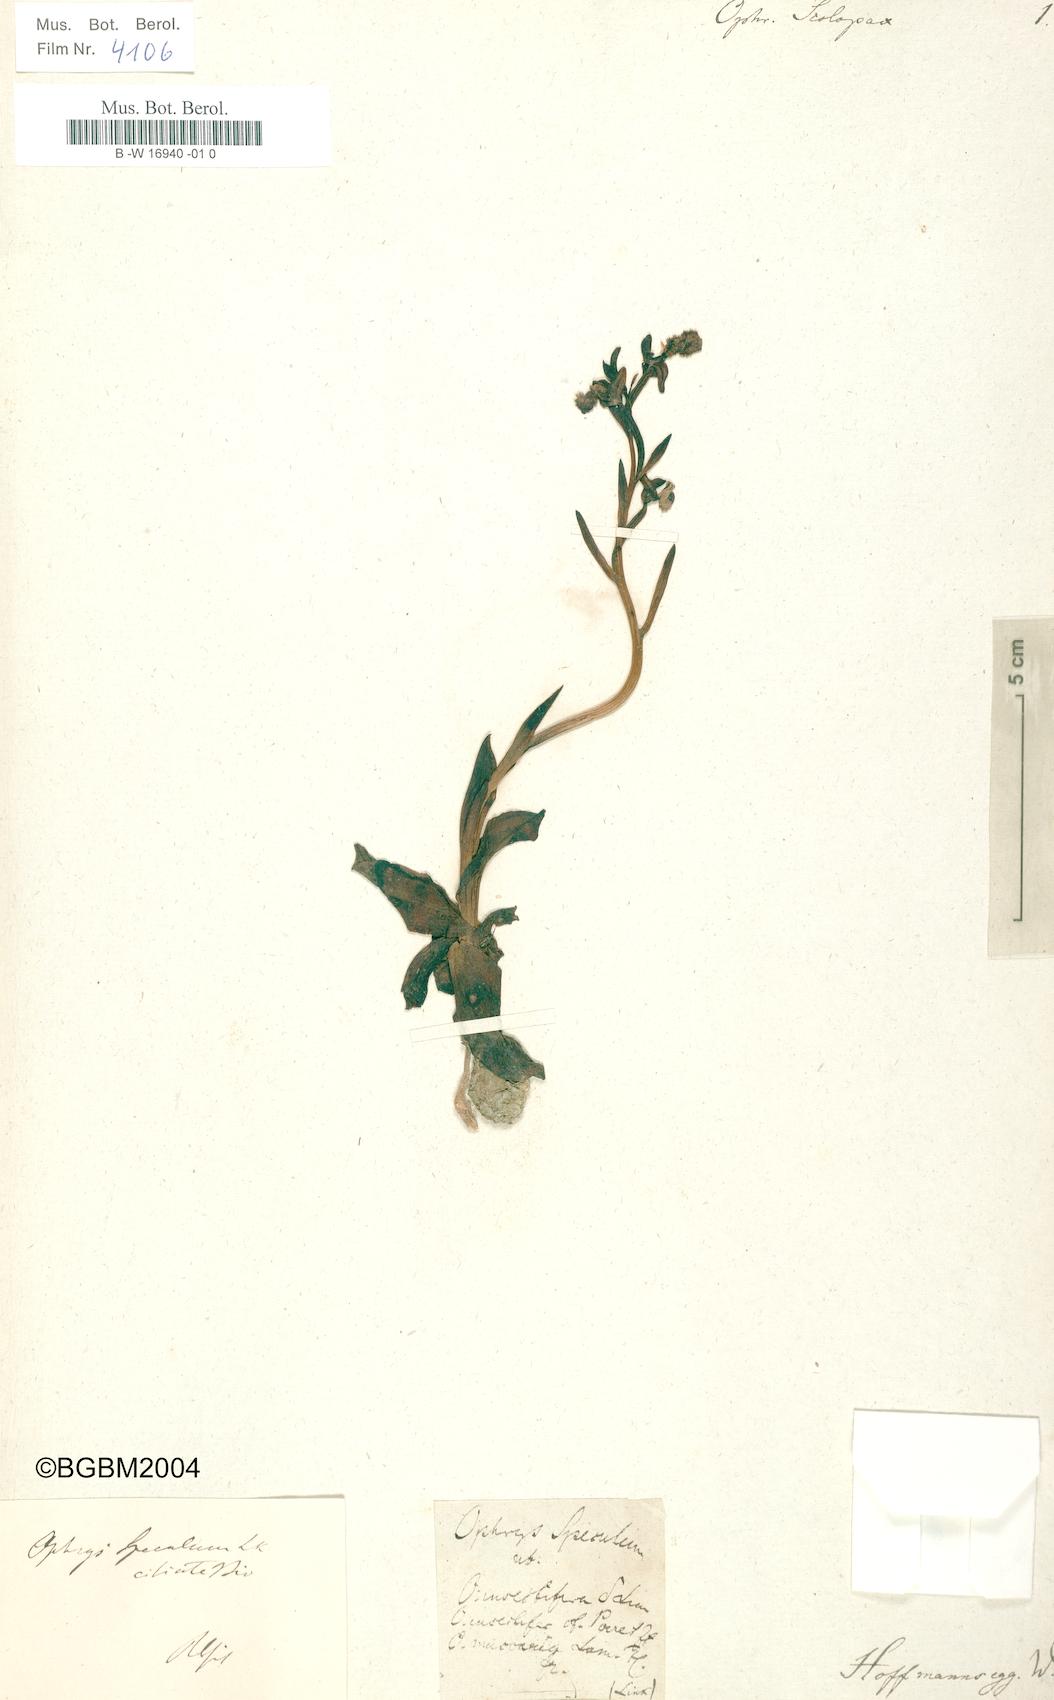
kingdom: Plantae
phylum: Tracheophyta
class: Liliopsida
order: Asparagales
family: Orchidaceae
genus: Ophrys
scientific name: Ophrys speculum
